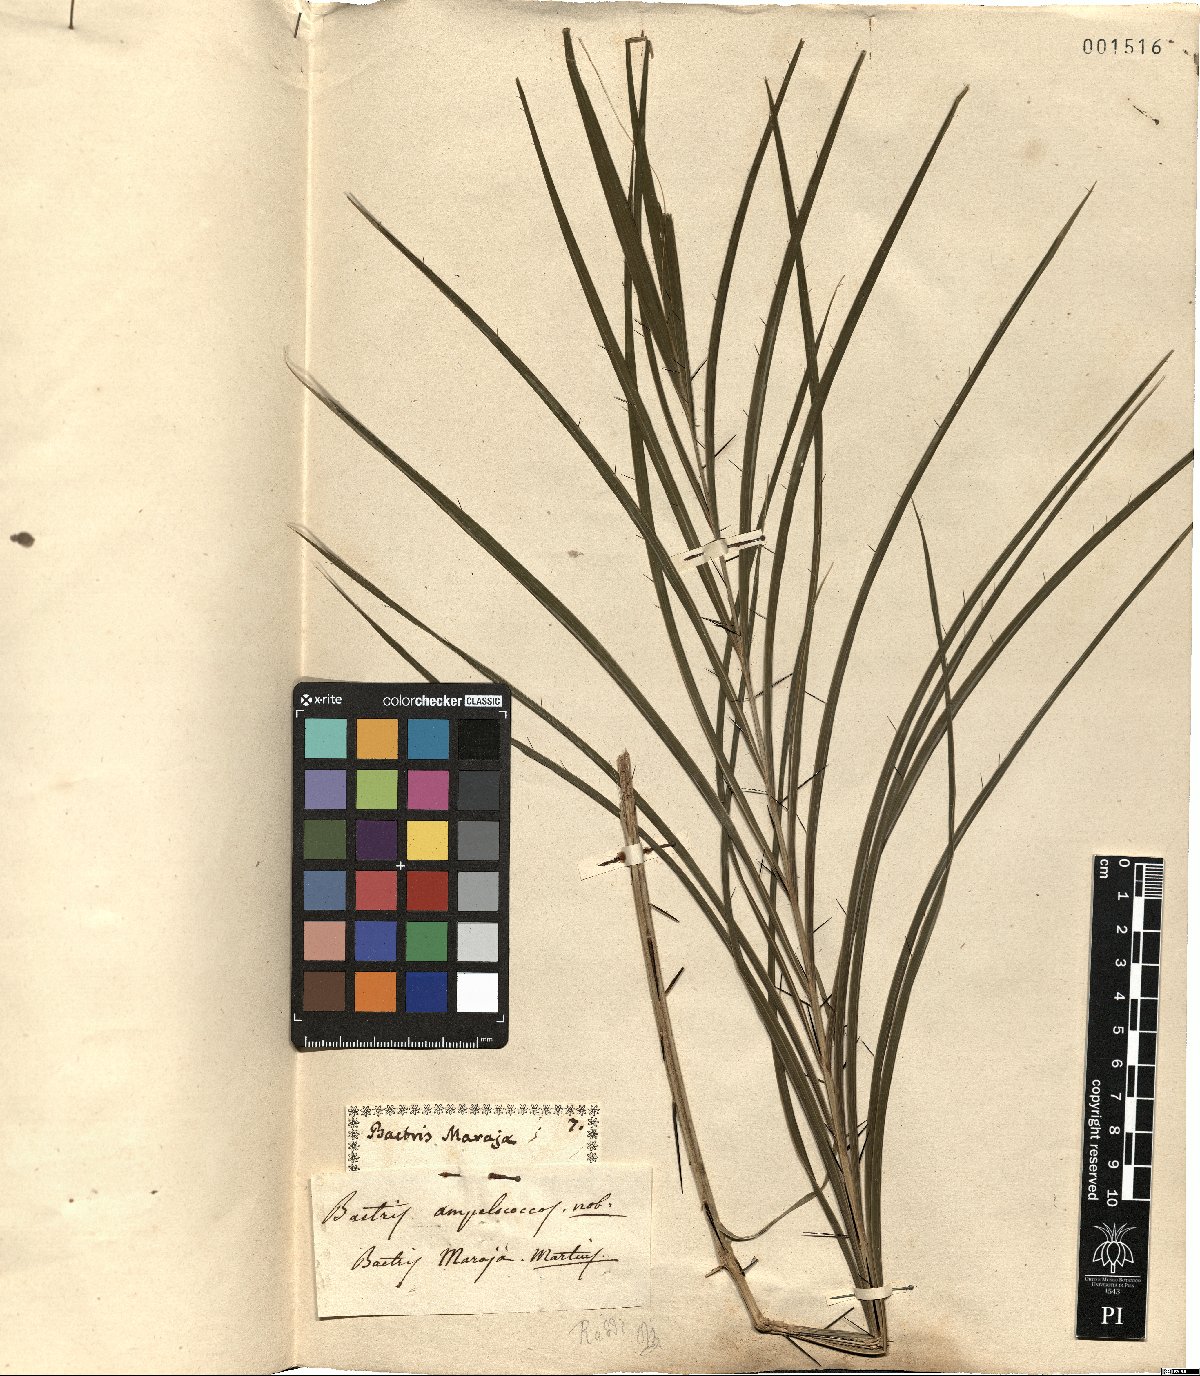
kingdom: Plantae
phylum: Tracheophyta
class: Liliopsida
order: Arecales
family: Arecaceae
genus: Bactris
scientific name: Bactris maraja
